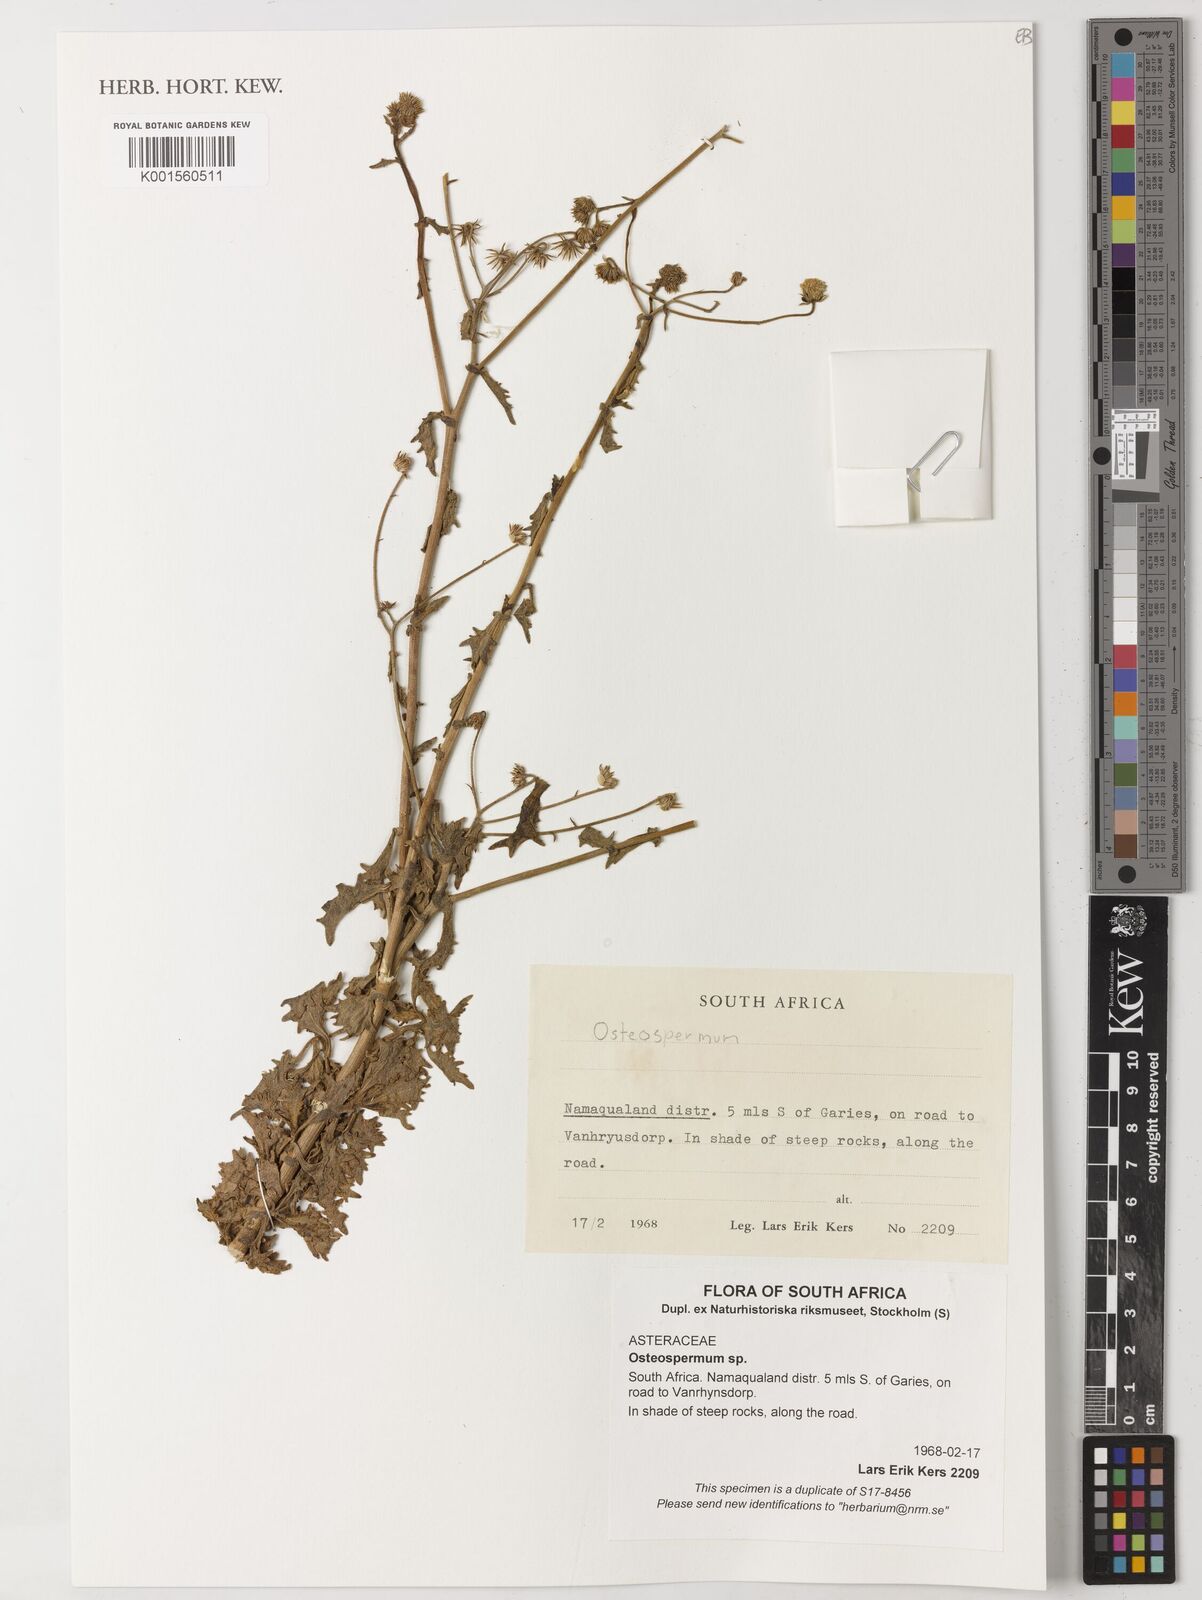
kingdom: Plantae
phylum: Tracheophyta
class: Magnoliopsida
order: Asterales
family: Asteraceae
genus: Osteospermum
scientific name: Osteospermum
